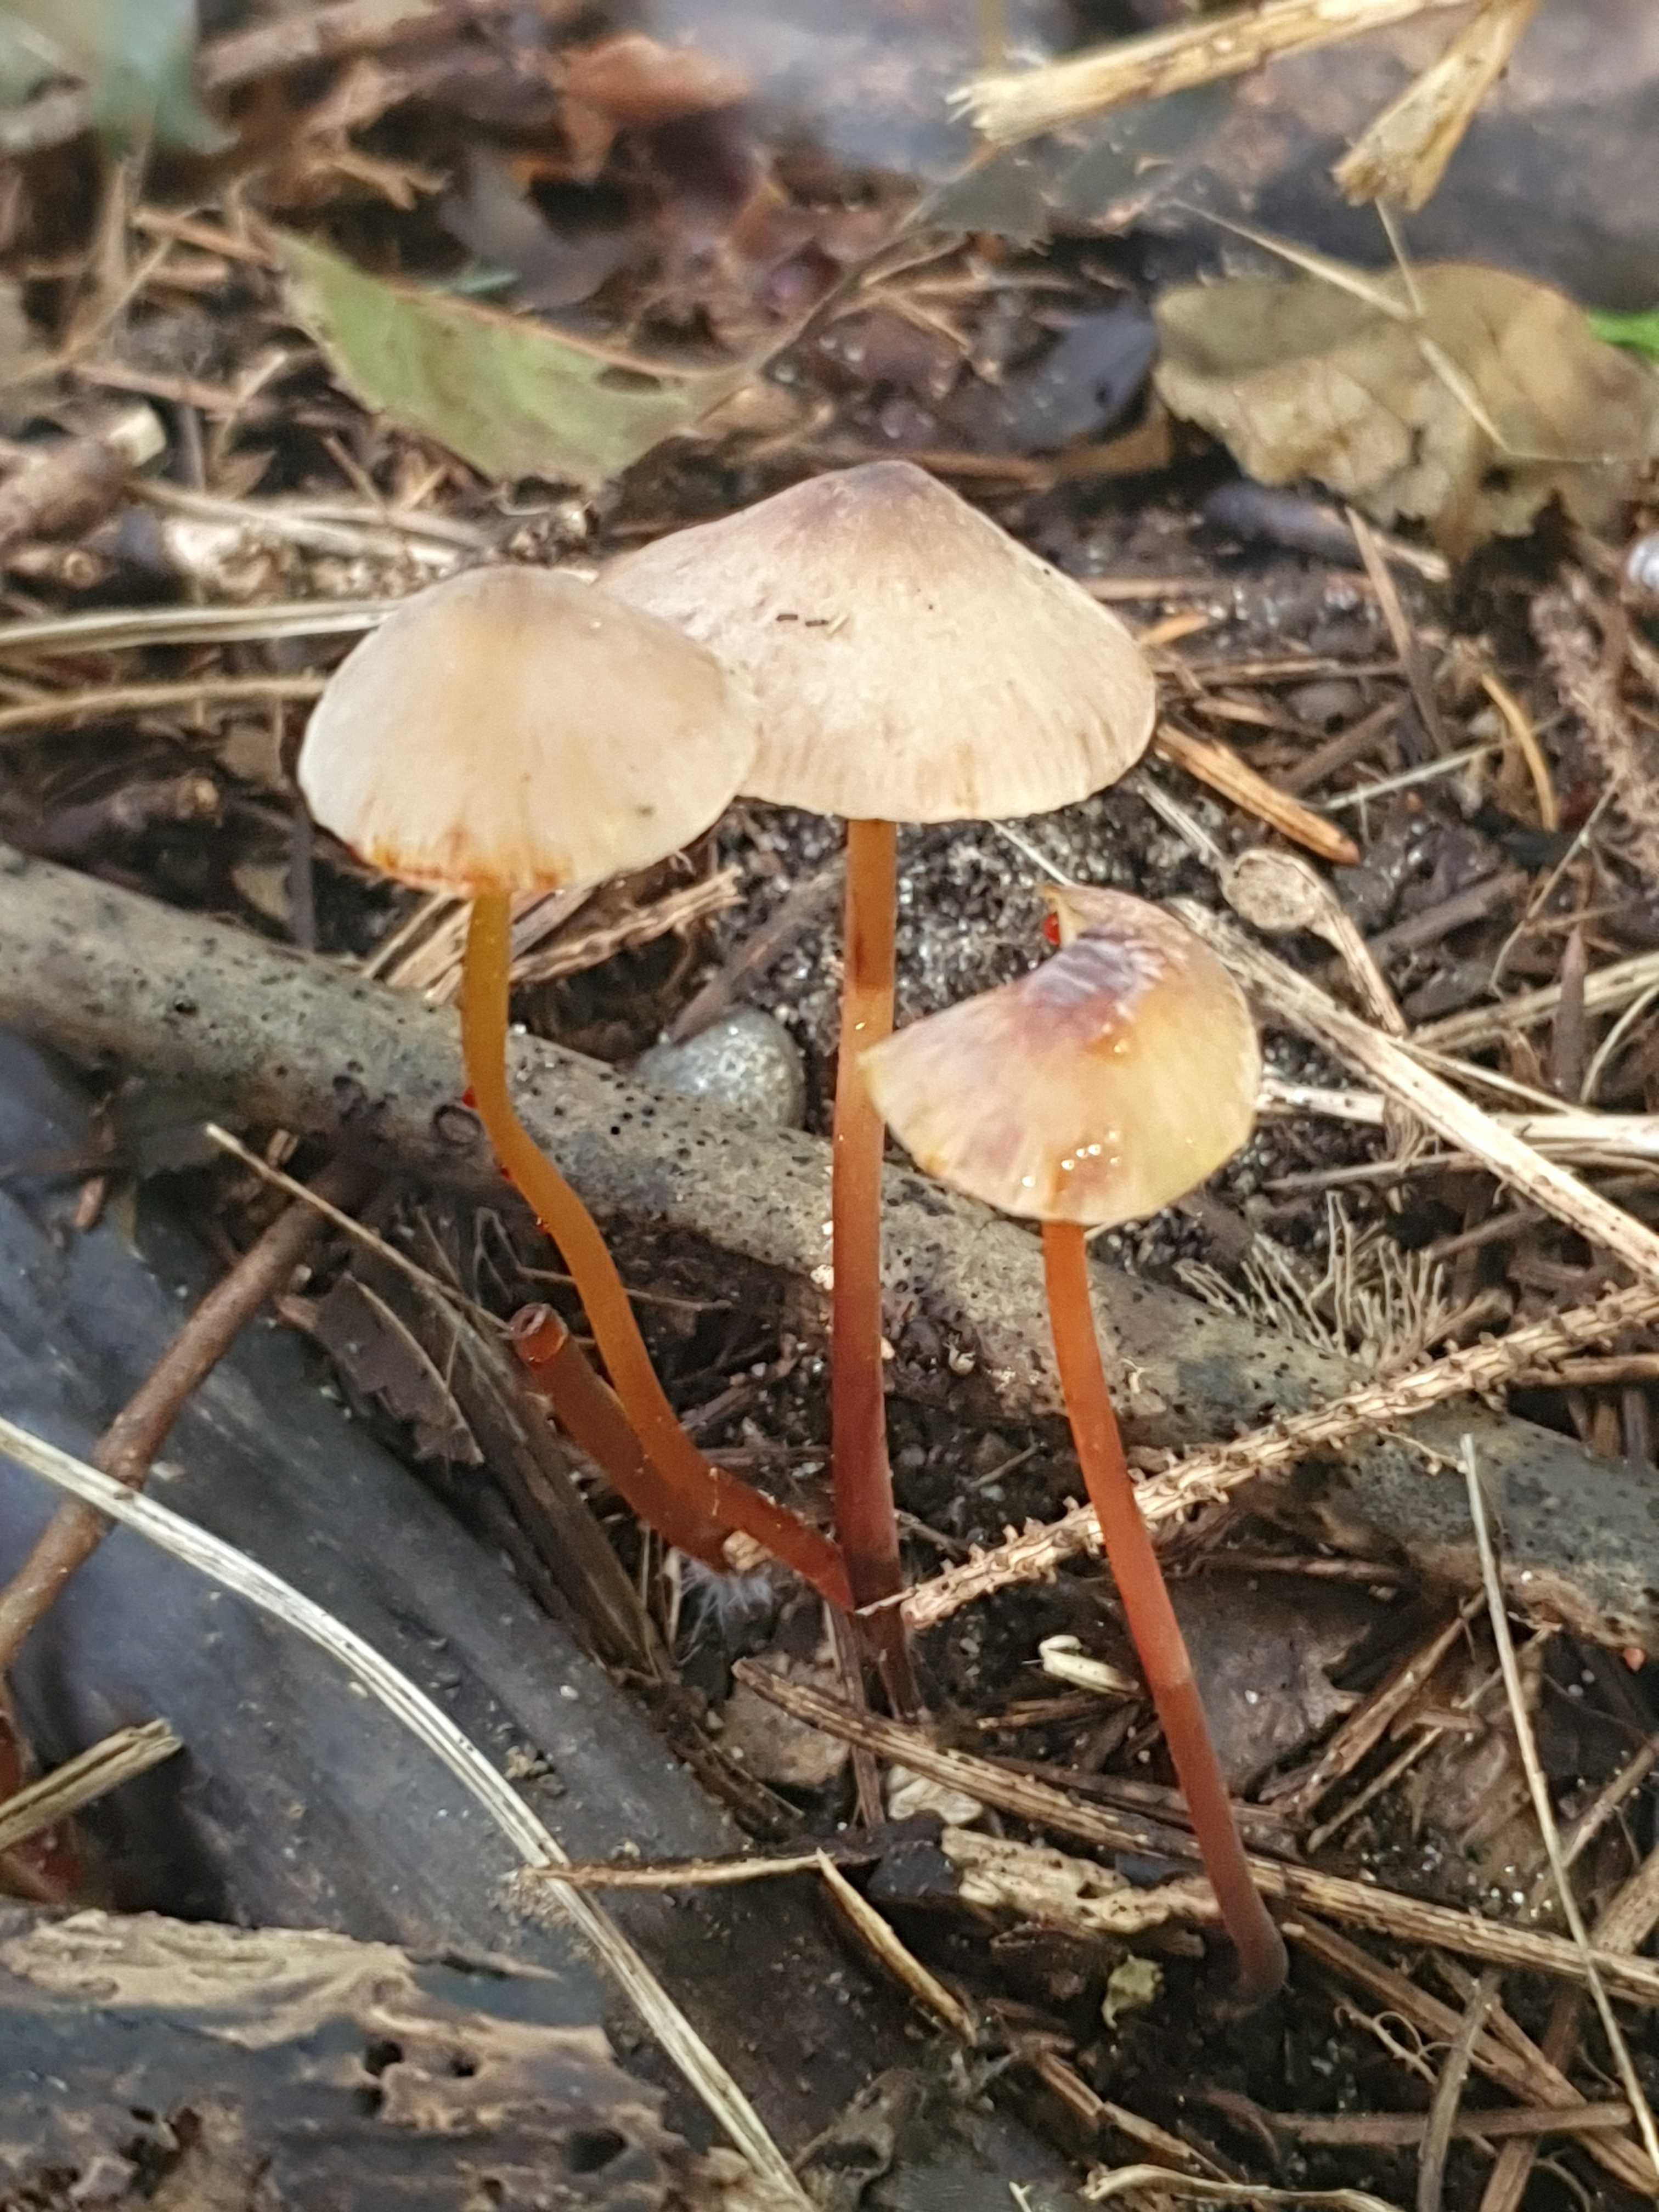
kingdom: Fungi
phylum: Basidiomycota
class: Agaricomycetes
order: Agaricales
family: Mycenaceae
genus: Mycena
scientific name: Mycena crocata
